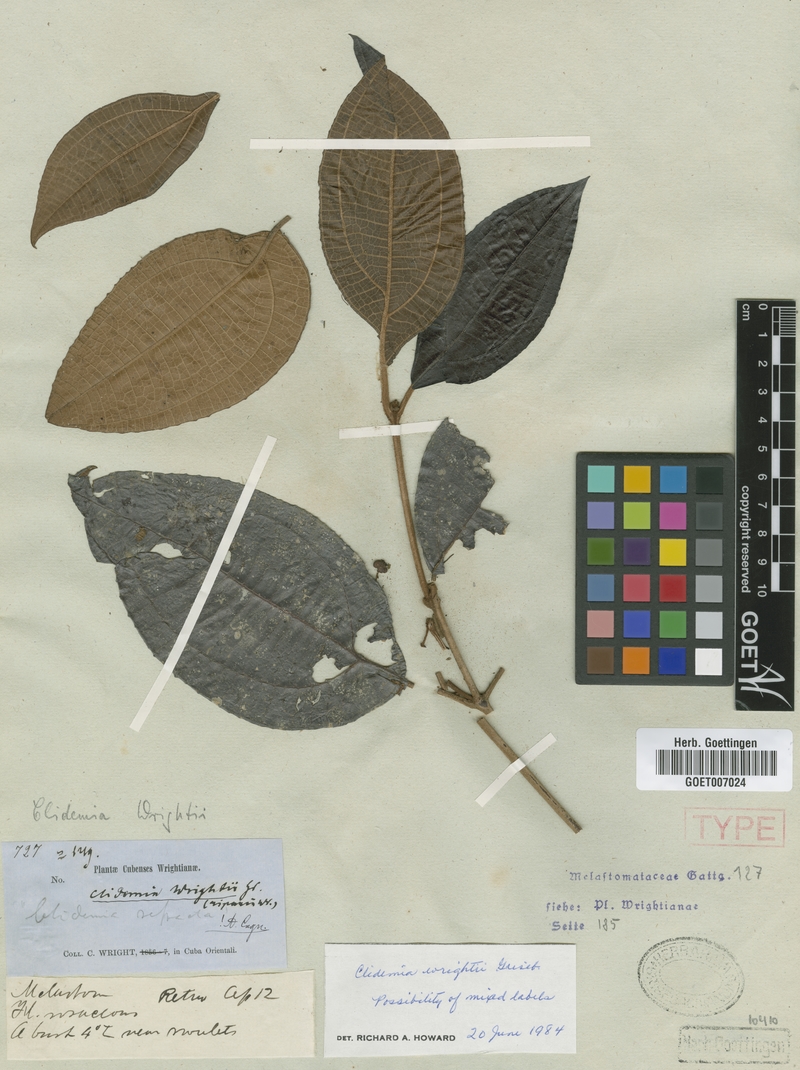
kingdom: Plantae
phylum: Tracheophyta
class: Magnoliopsida
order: Myrtales
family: Melastomataceae
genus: Miconia
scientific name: Miconia charleswrightii
